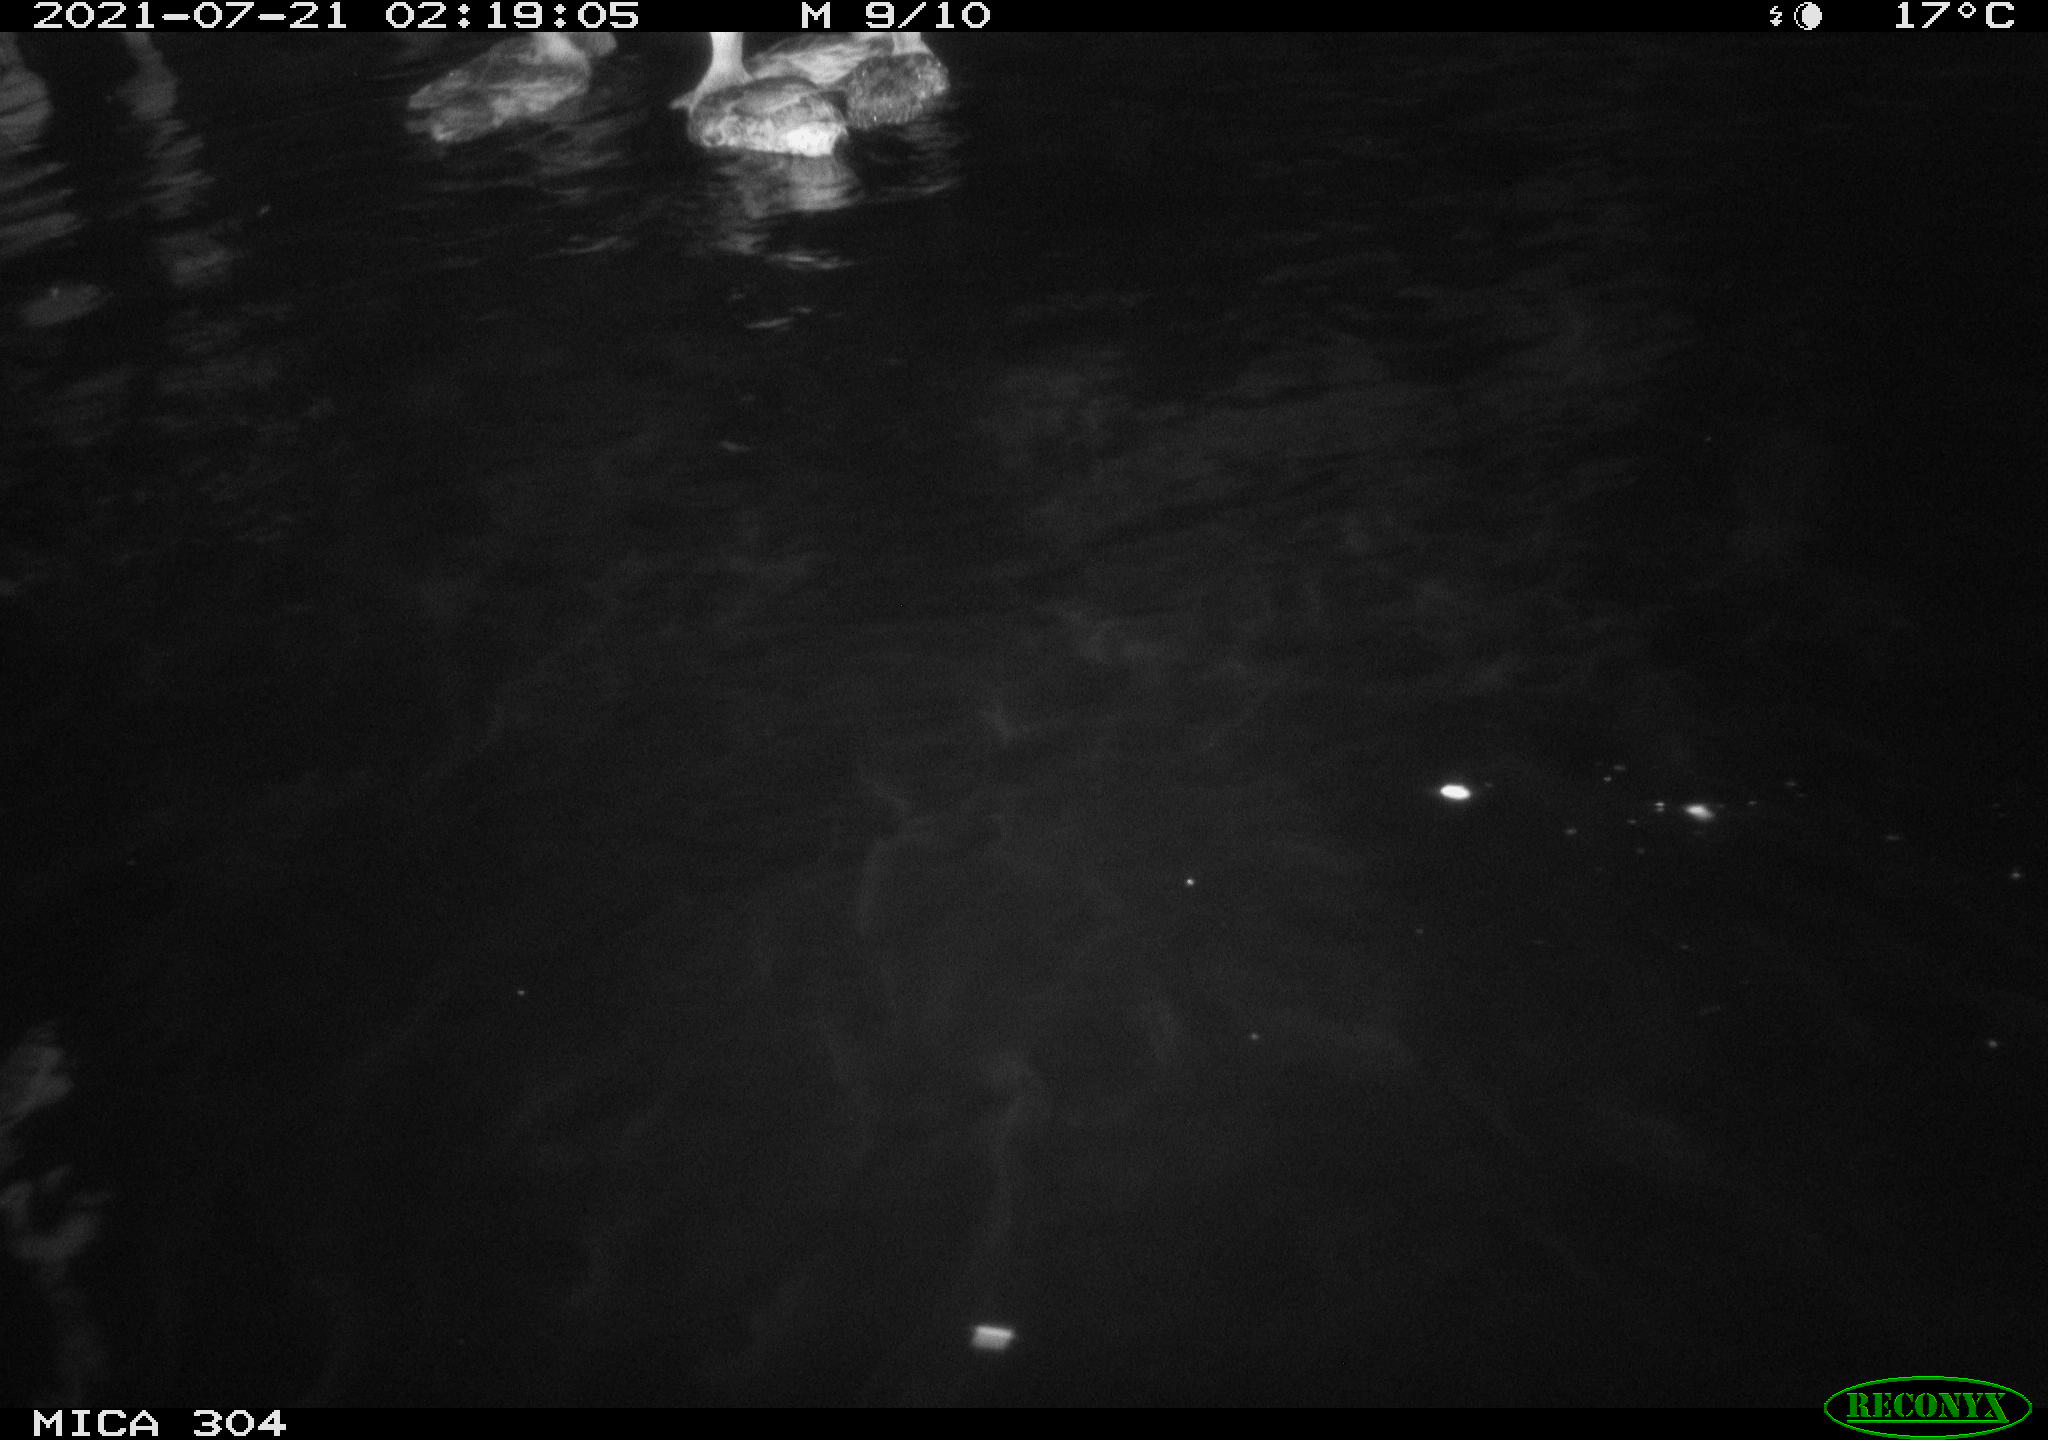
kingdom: Animalia
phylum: Chordata
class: Aves
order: Anseriformes
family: Anatidae
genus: Anas
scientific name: Anas platyrhynchos
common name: Mallard
